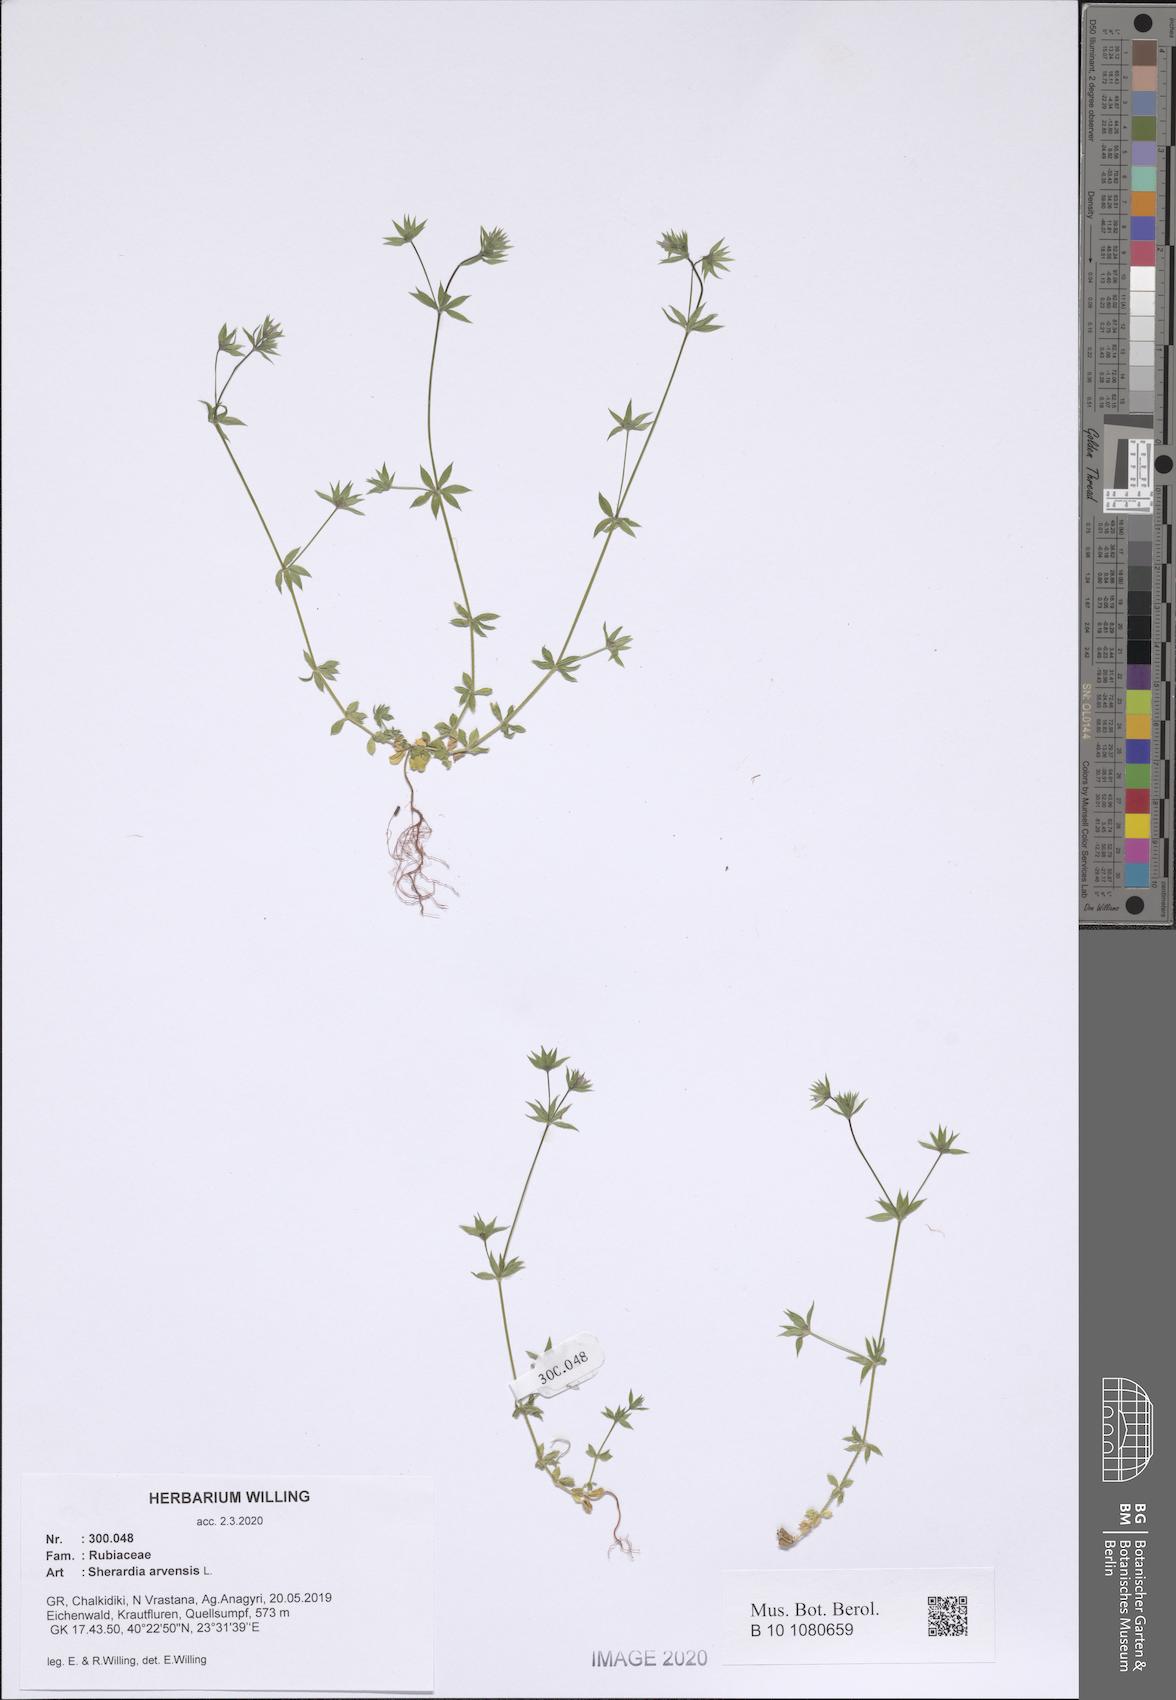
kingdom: Plantae
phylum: Tracheophyta
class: Magnoliopsida
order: Gentianales
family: Rubiaceae
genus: Sherardia
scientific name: Sherardia arvensis
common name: Field madder
